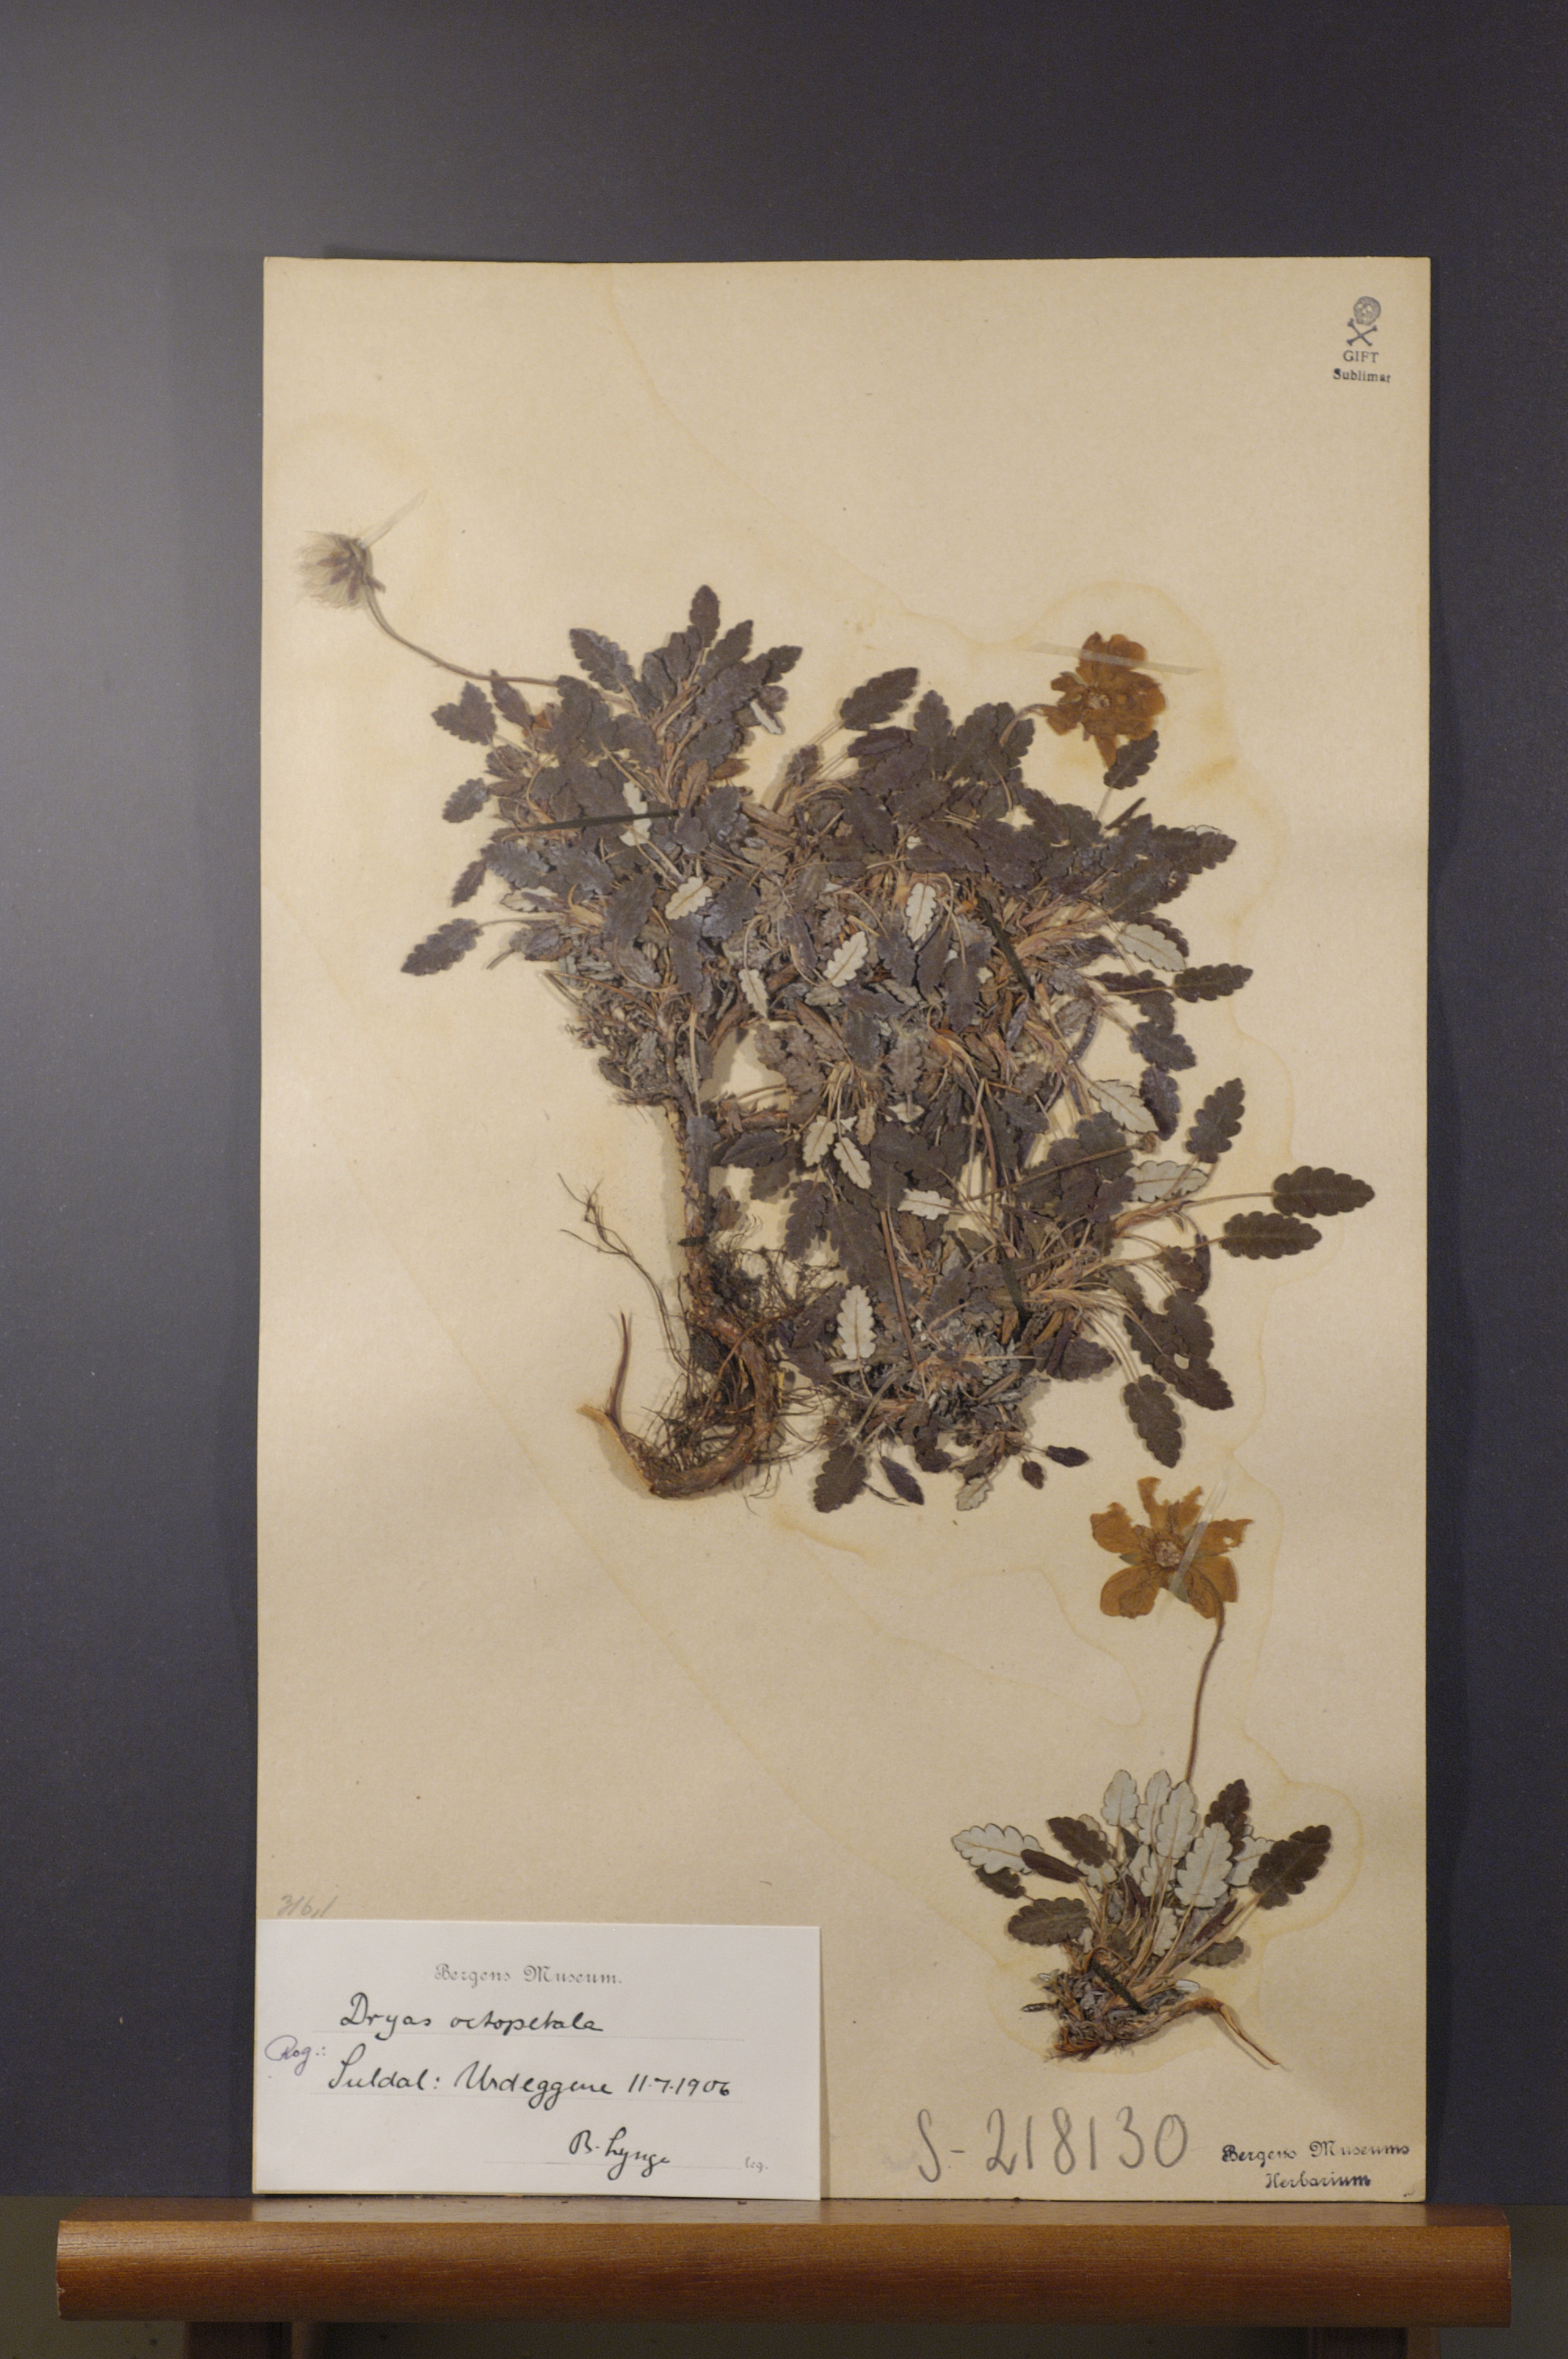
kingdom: Plantae
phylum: Tracheophyta
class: Magnoliopsida
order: Rosales
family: Rosaceae
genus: Dryas
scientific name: Dryas octopetala
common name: Eight-petal mountain-avens
